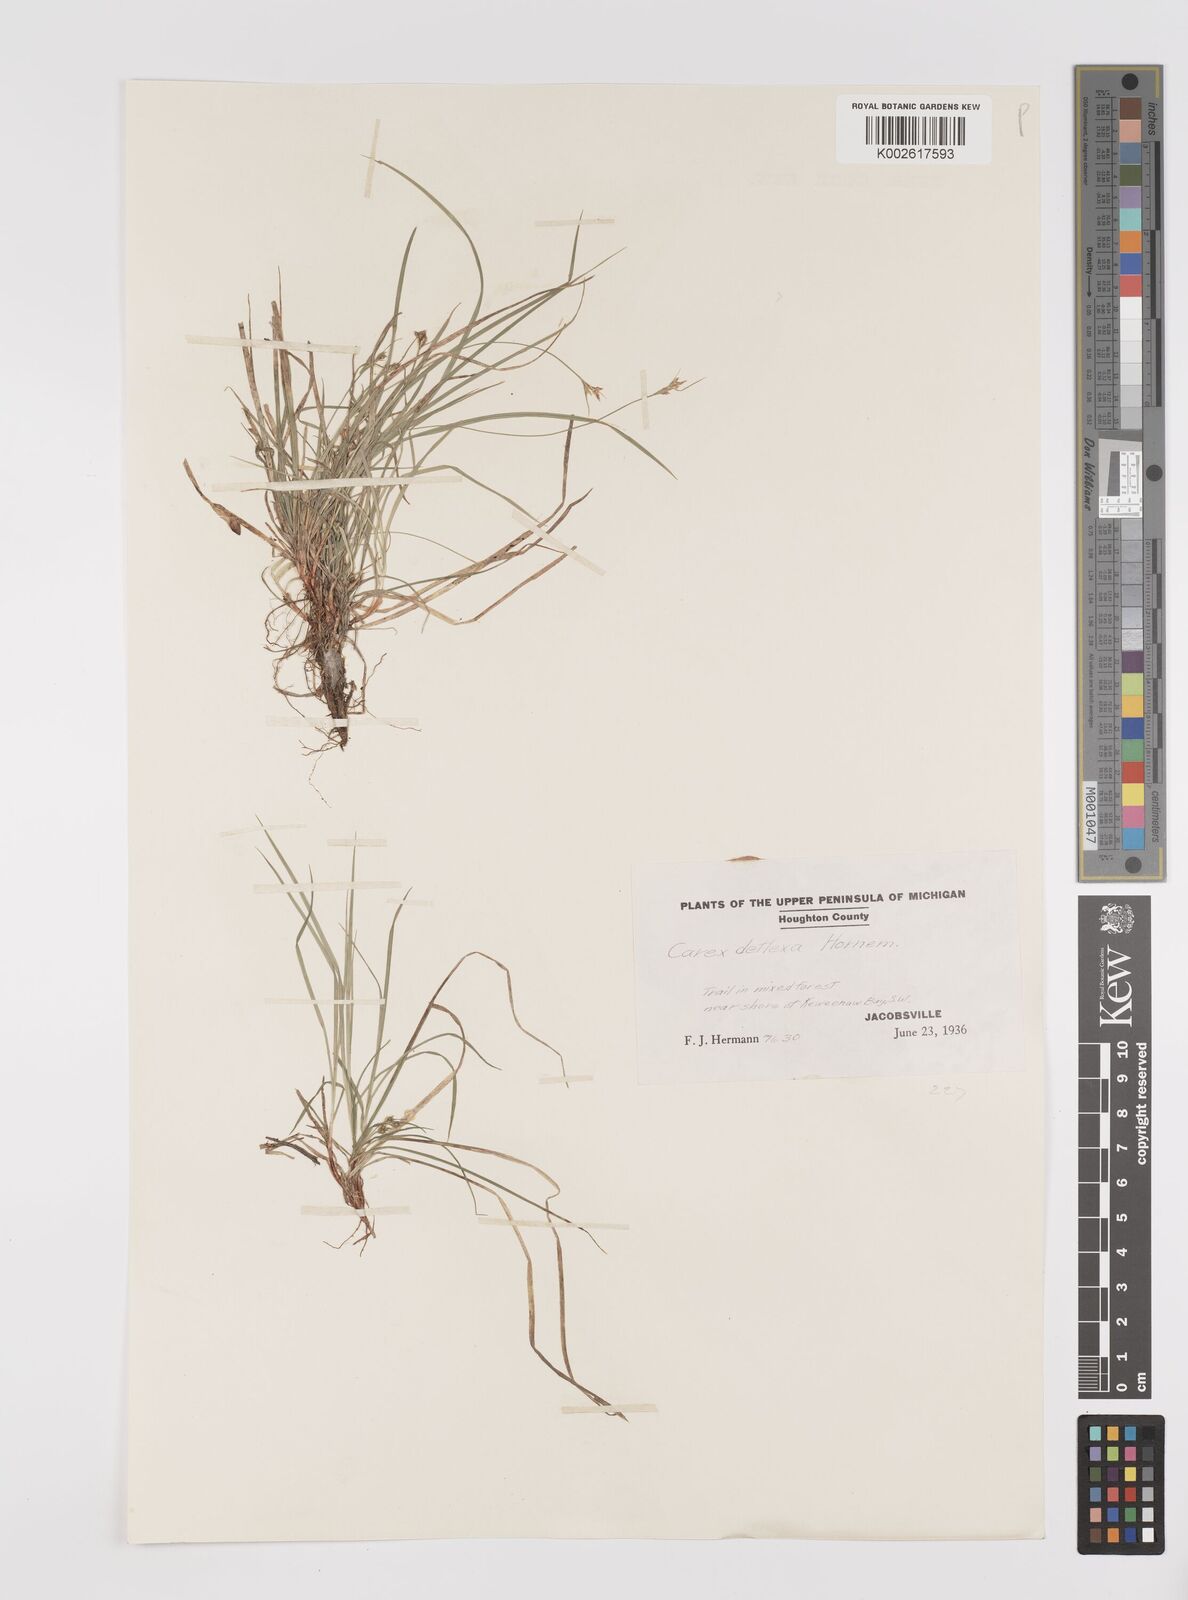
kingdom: Plantae
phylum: Tracheophyta
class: Liliopsida
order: Poales
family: Cyperaceae
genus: Carex
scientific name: Carex deflexa
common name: Bent northern sedge
